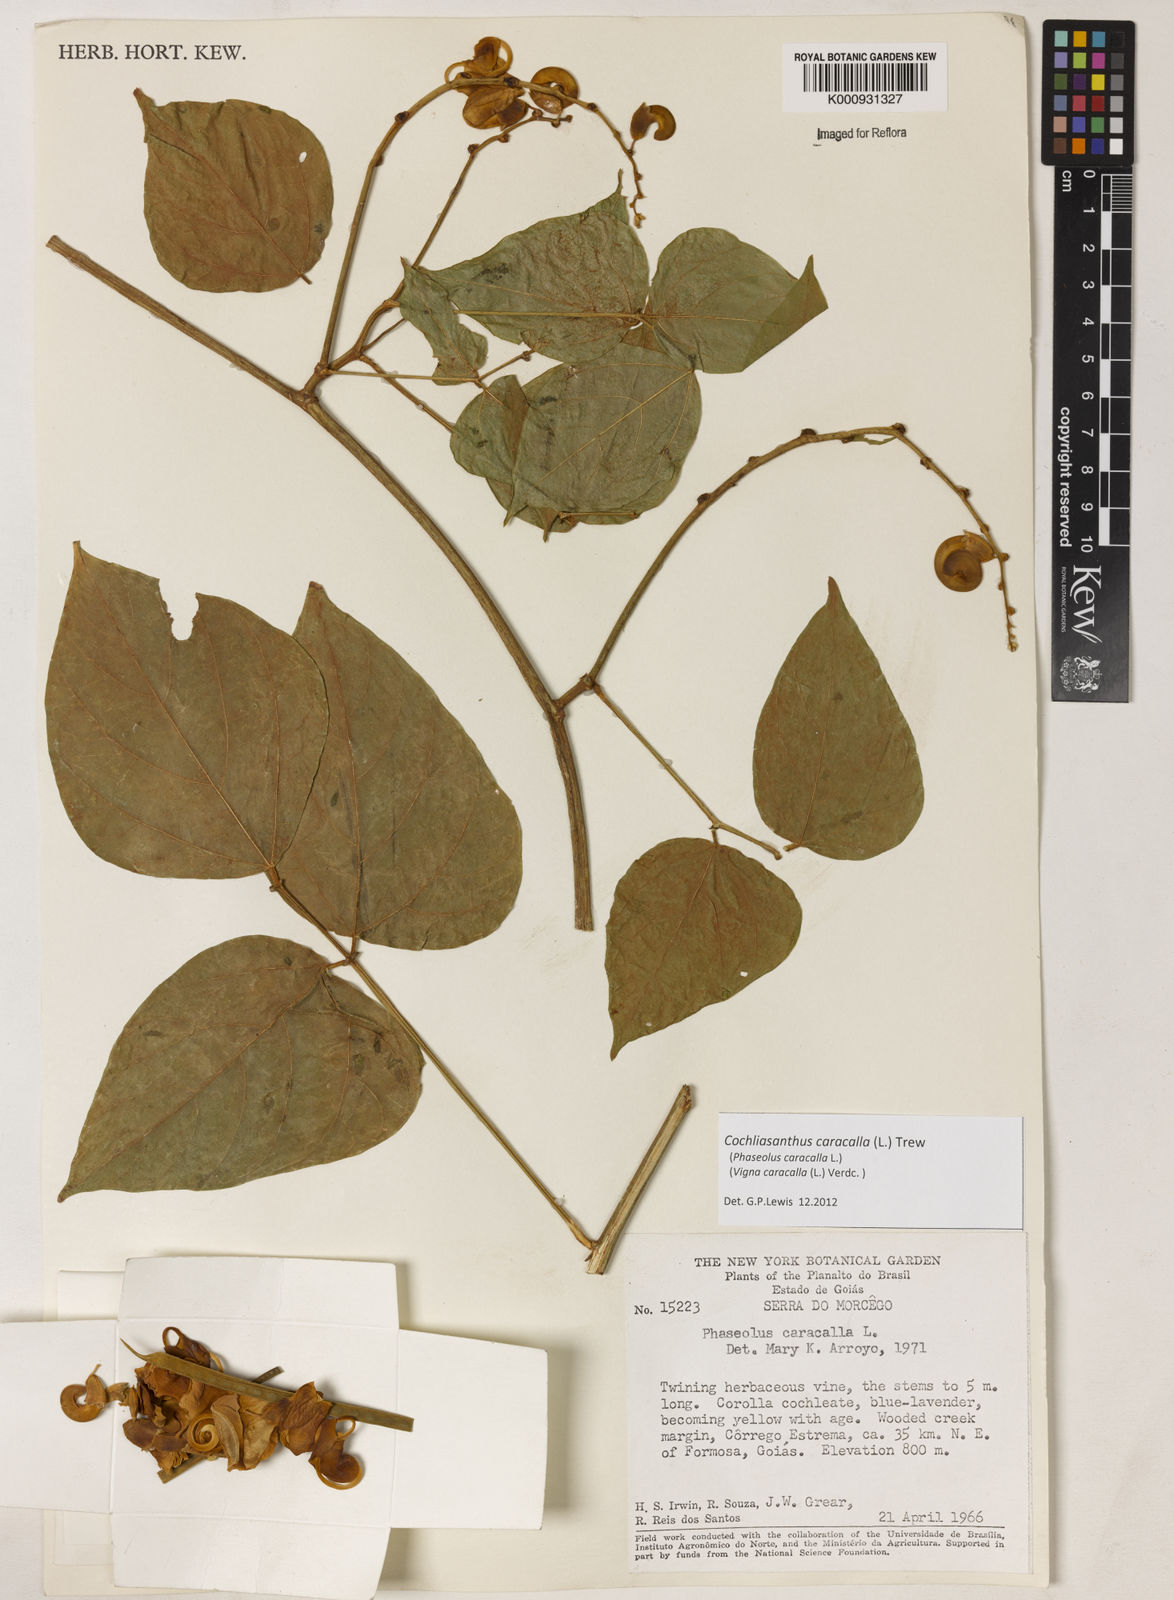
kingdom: Plantae
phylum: Tracheophyta
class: Magnoliopsida
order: Fabales
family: Fabaceae
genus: Cochliasanthus
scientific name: Cochliasanthus caracalla
